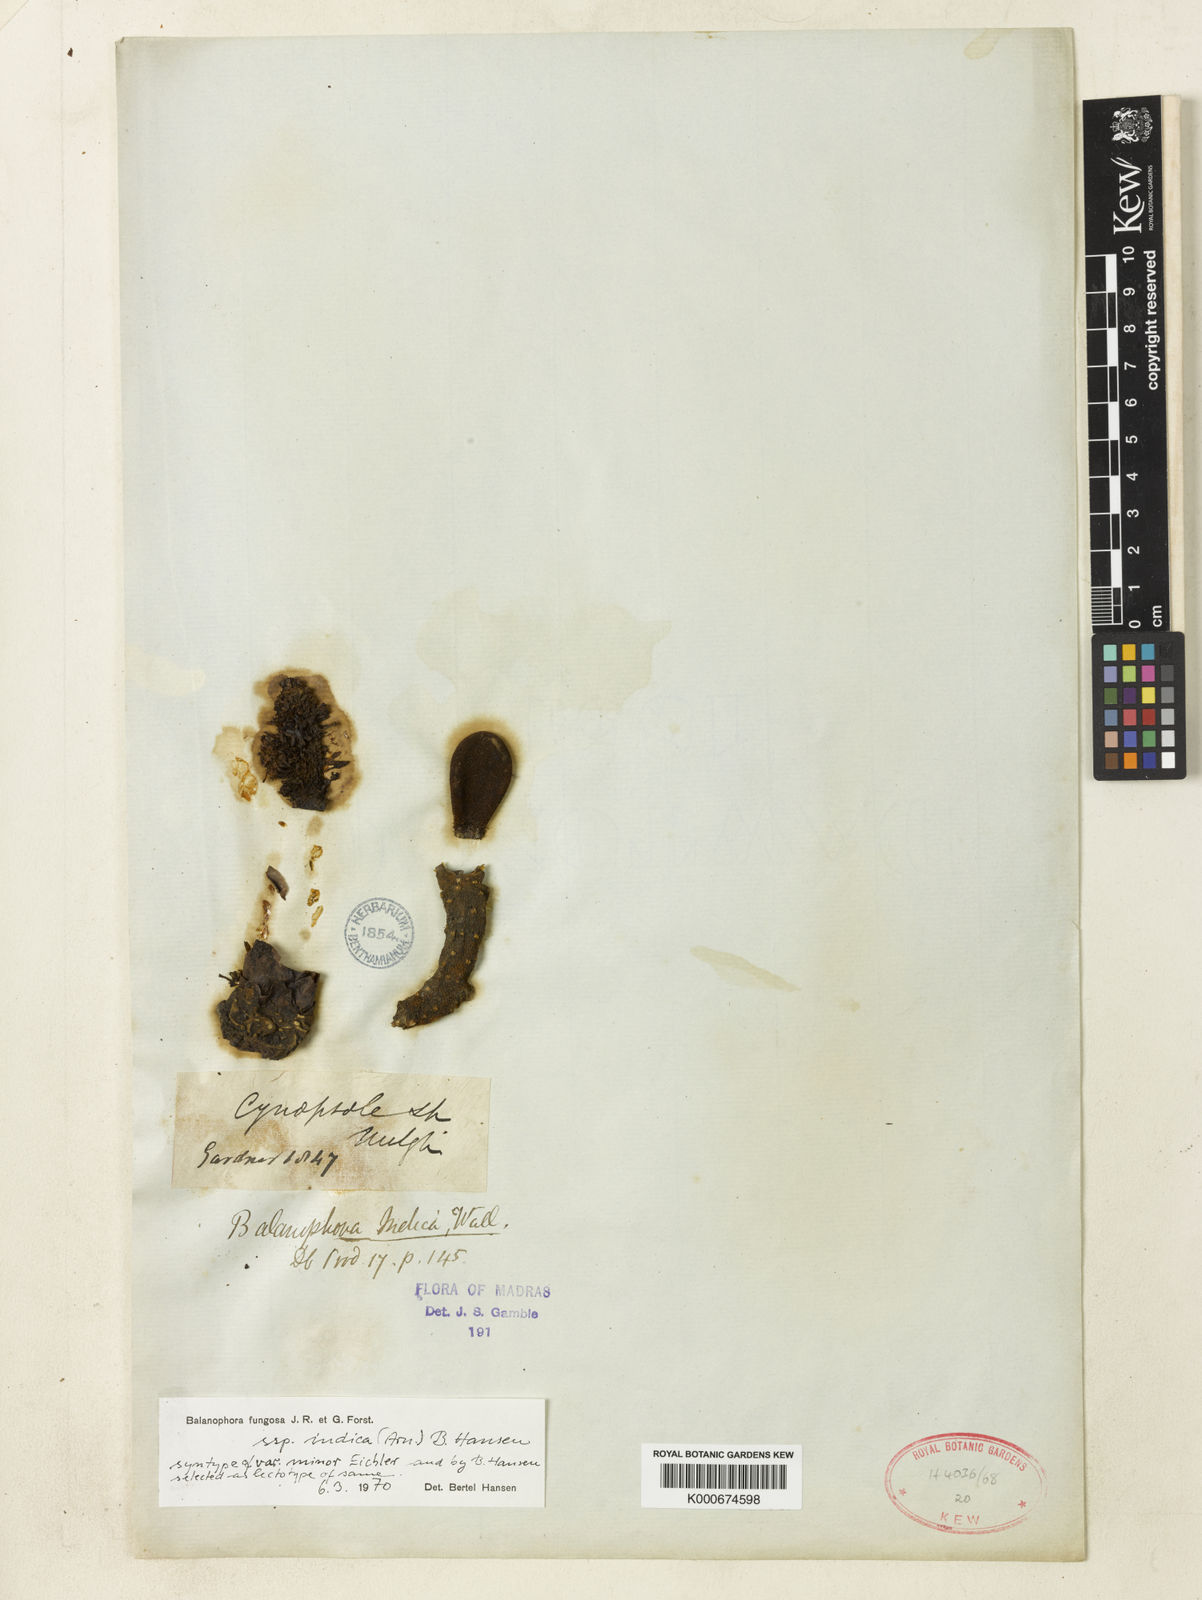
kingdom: Plantae
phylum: Tracheophyta
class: Magnoliopsida
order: Santalales
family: Balanophoraceae
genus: Balanophora
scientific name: Balanophora fungosa
